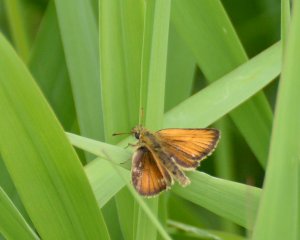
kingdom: Animalia
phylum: Arthropoda
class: Insecta
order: Lepidoptera
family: Hesperiidae
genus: Thymelicus
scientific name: Thymelicus lineola
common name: European Skipper
